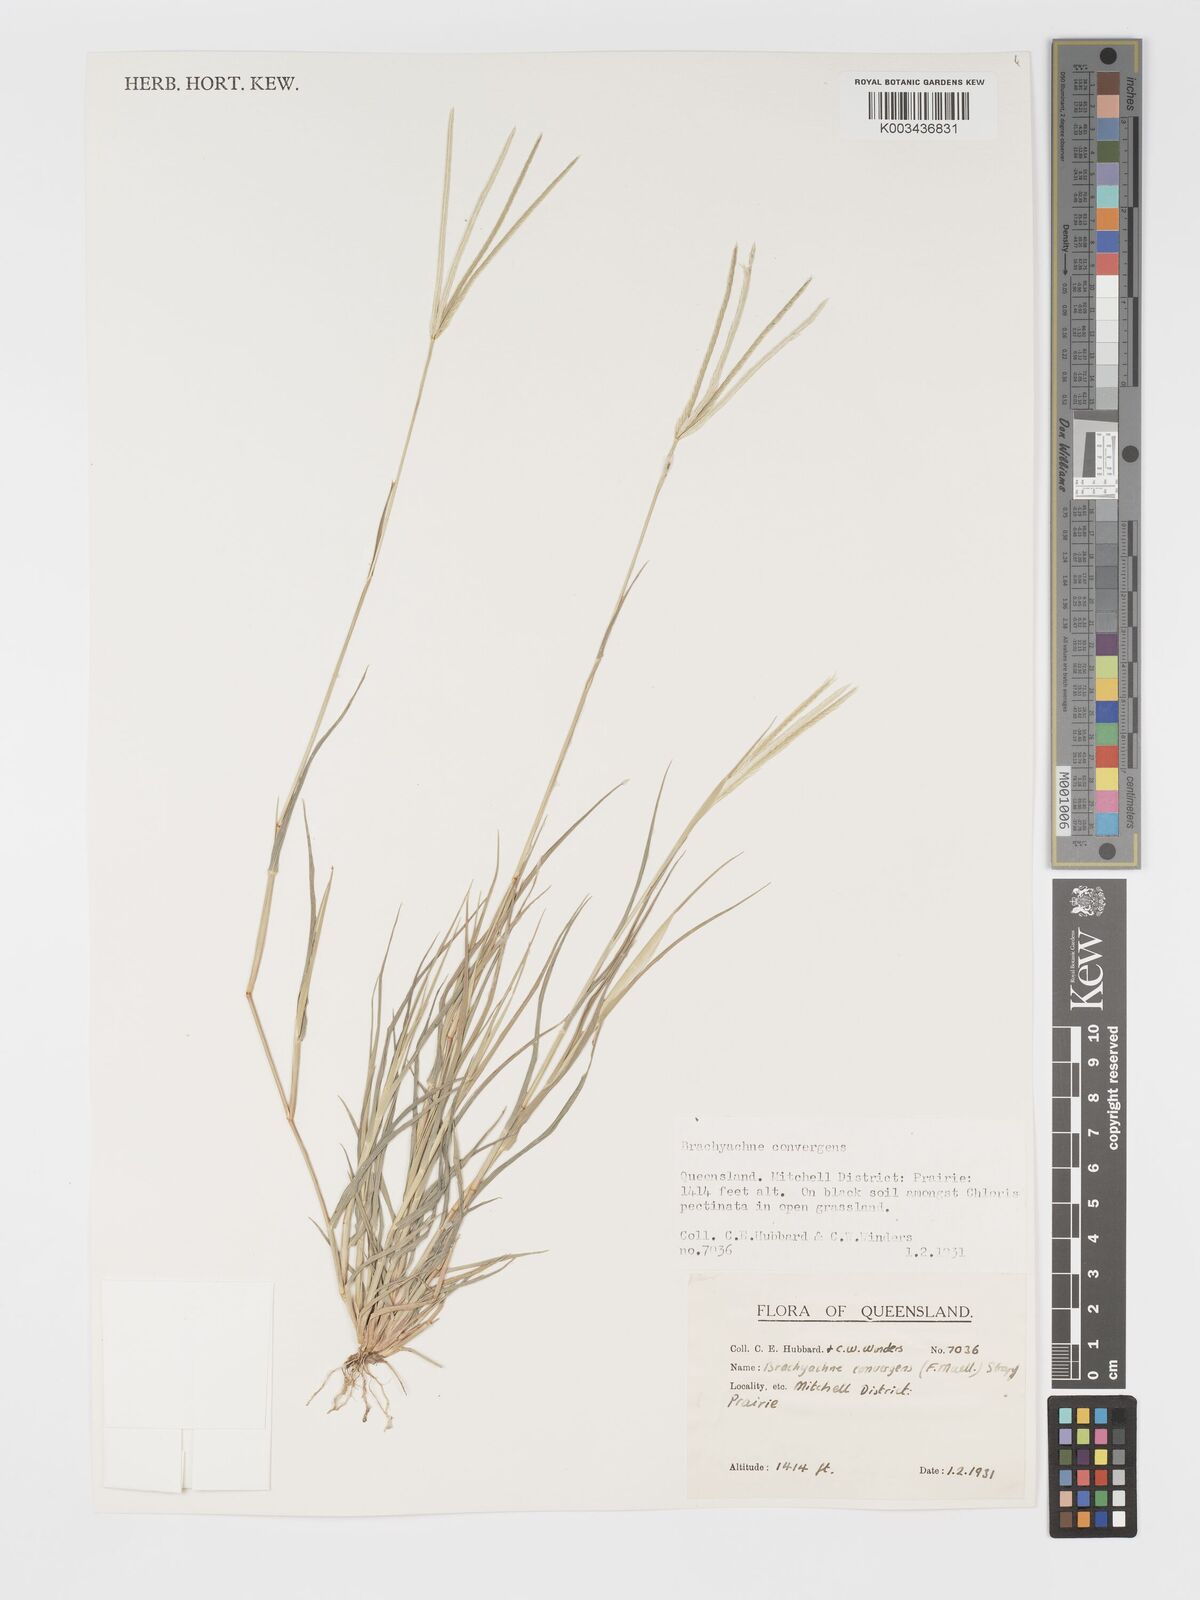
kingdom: Plantae
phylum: Tracheophyta
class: Liliopsida
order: Poales
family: Poaceae
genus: Cynodon
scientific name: Cynodon convergens
